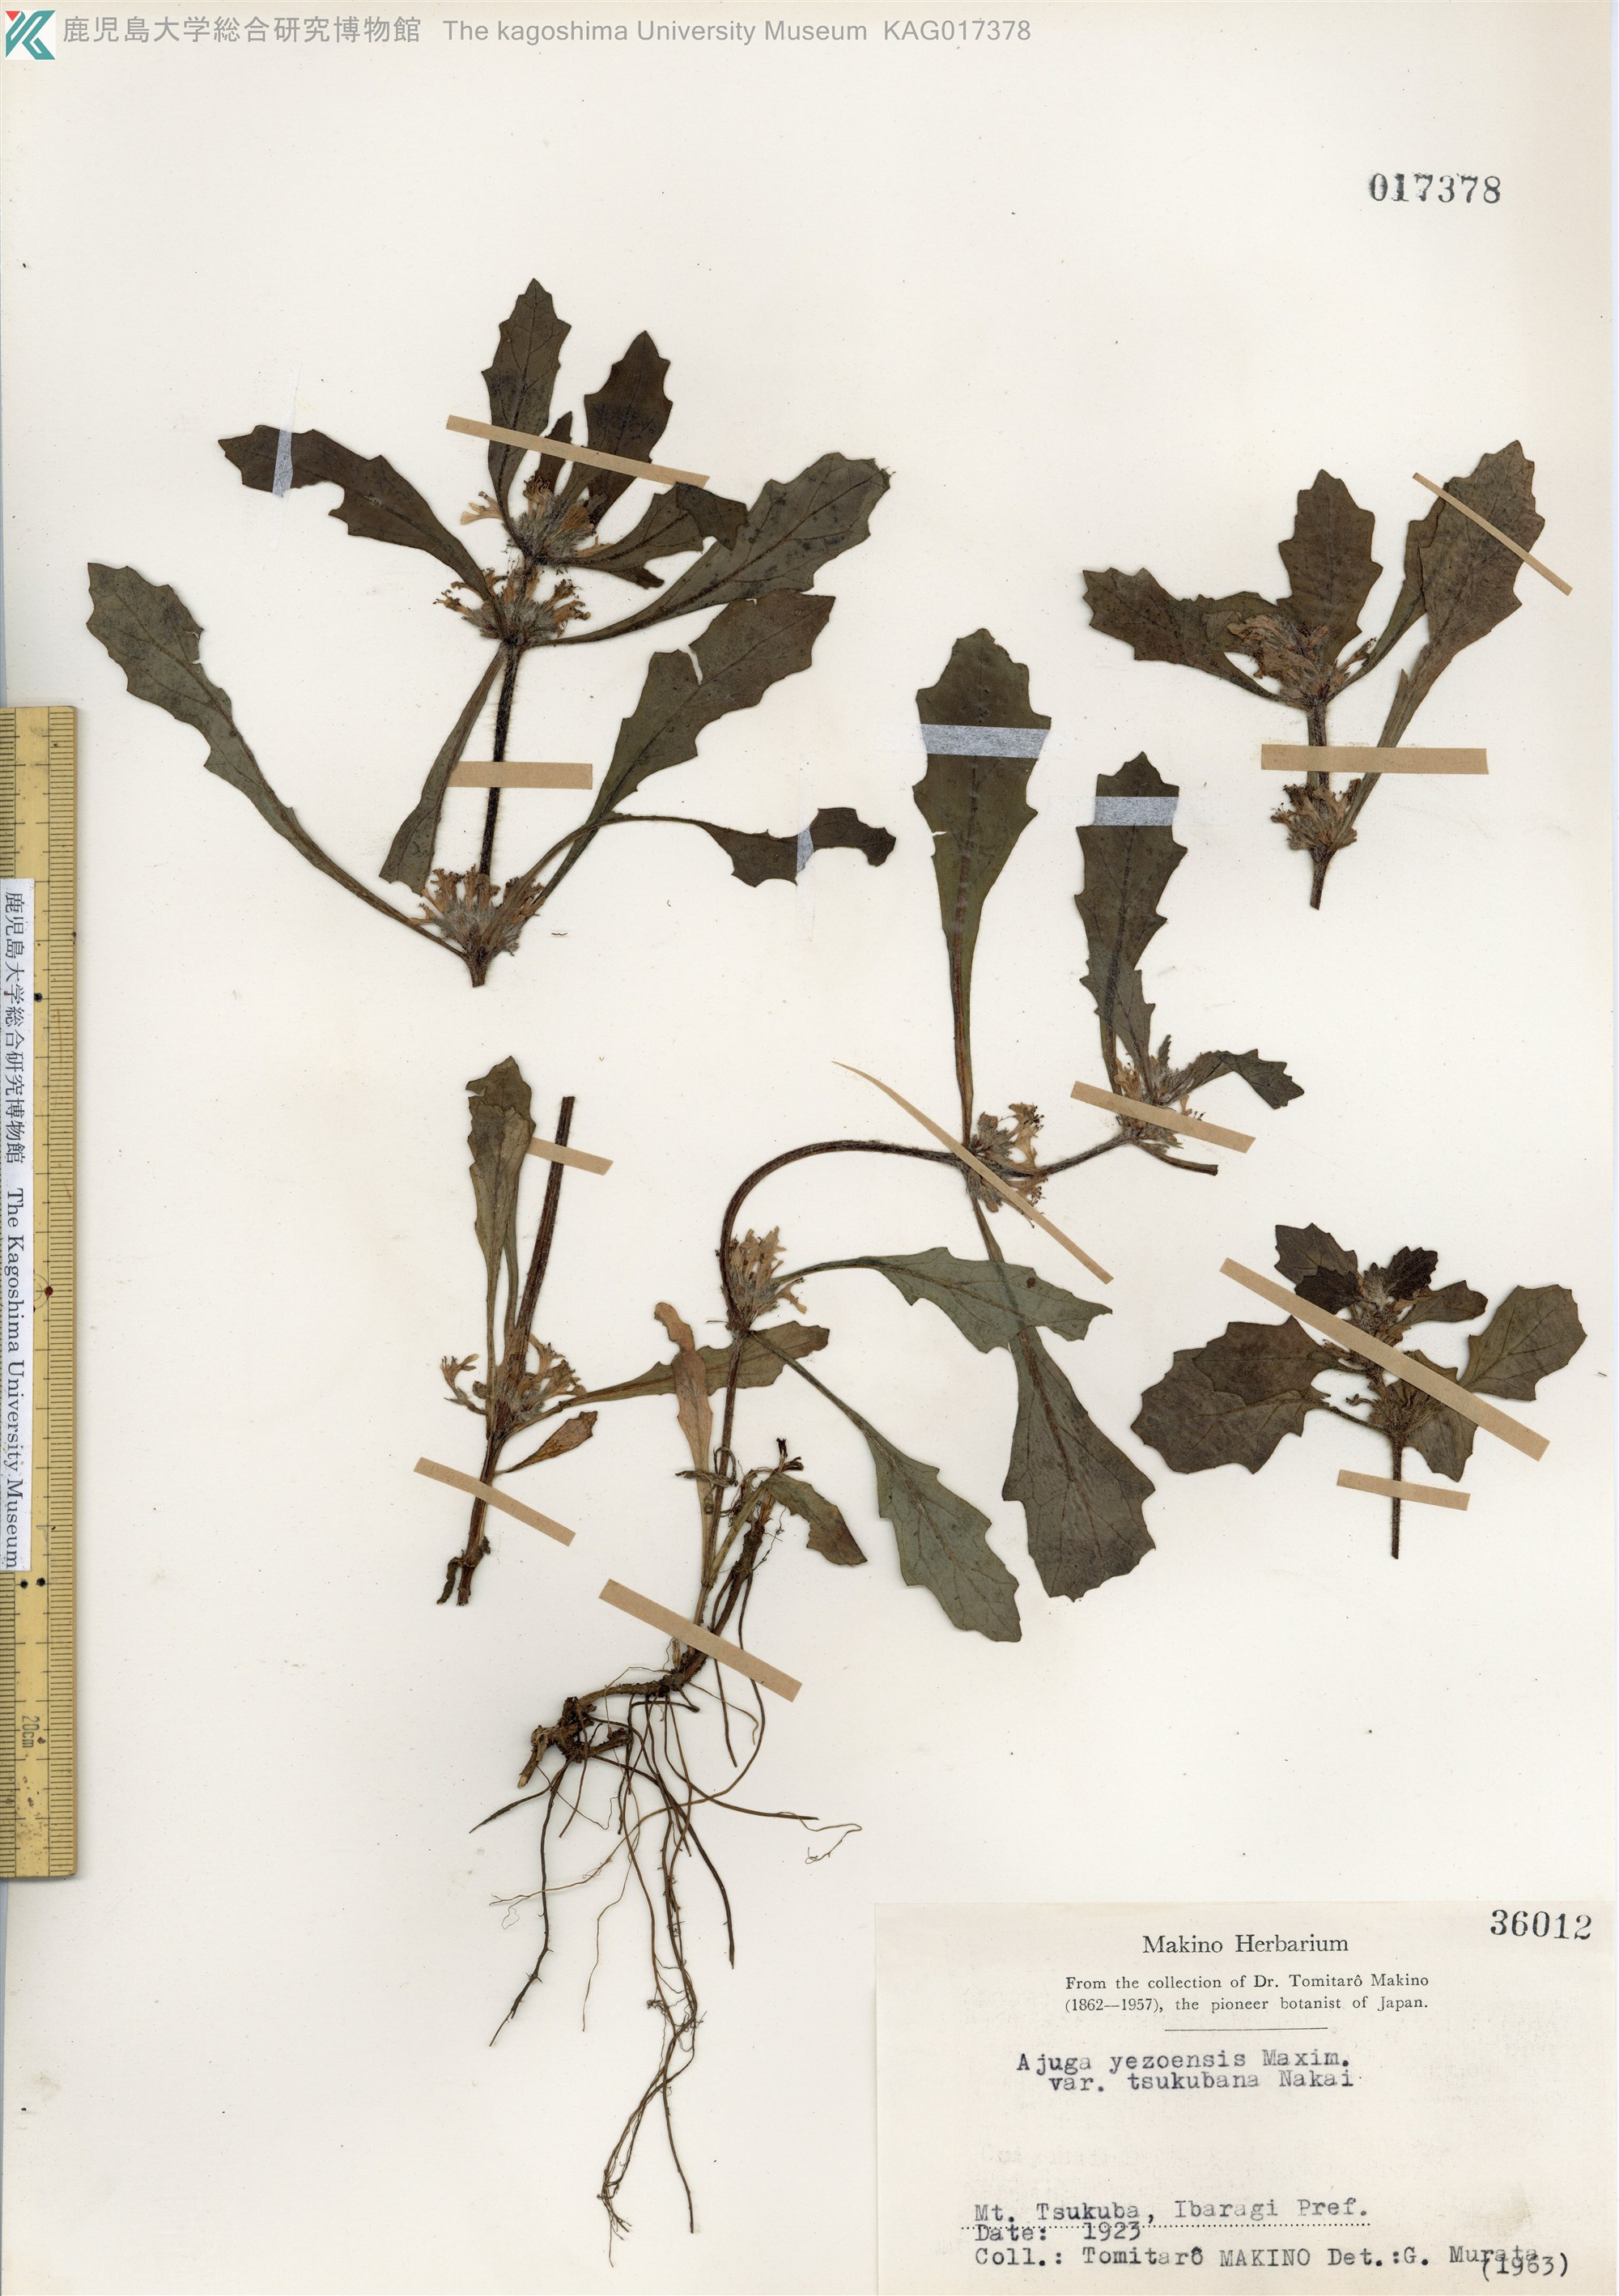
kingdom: Plantae
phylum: Tracheophyta
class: Magnoliopsida
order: Lamiales
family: Lamiaceae
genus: Ajuga
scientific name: Ajuga yesoensis
